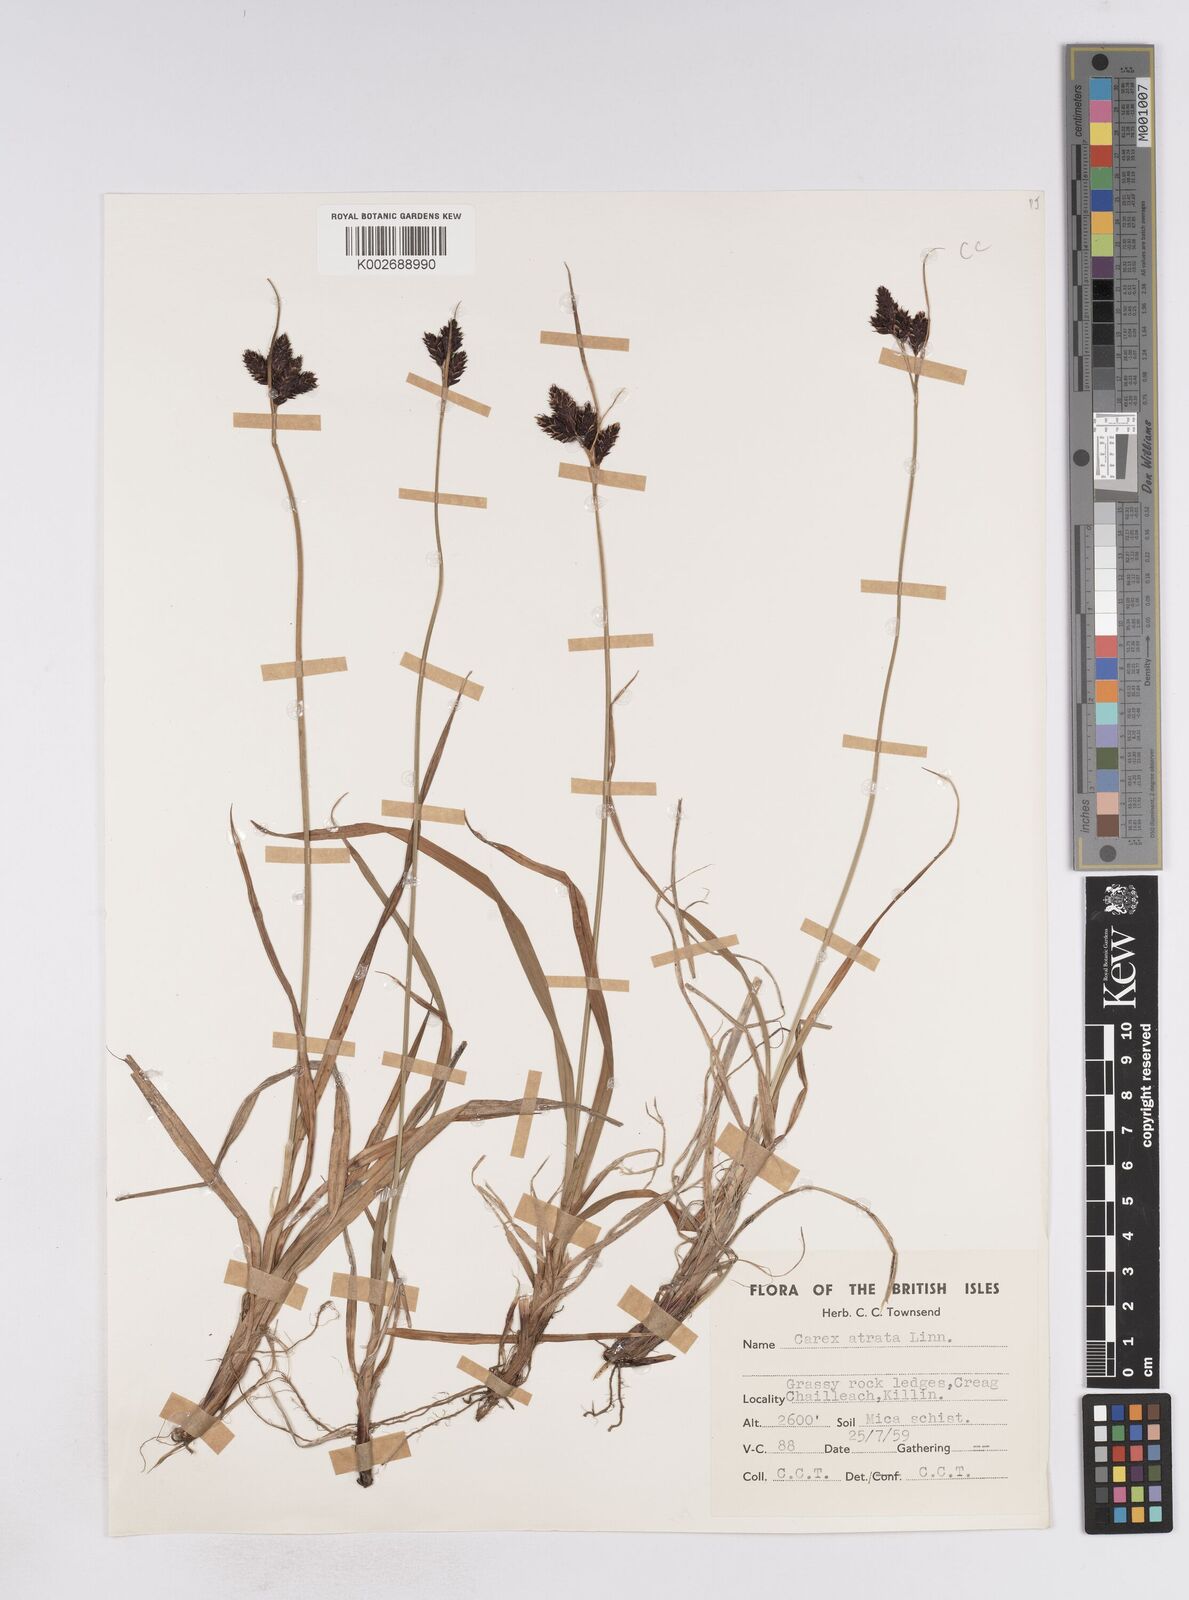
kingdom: Plantae
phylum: Tracheophyta
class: Liliopsida
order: Poales
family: Cyperaceae
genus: Carex
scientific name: Carex atrata
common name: Black alpine sedge
